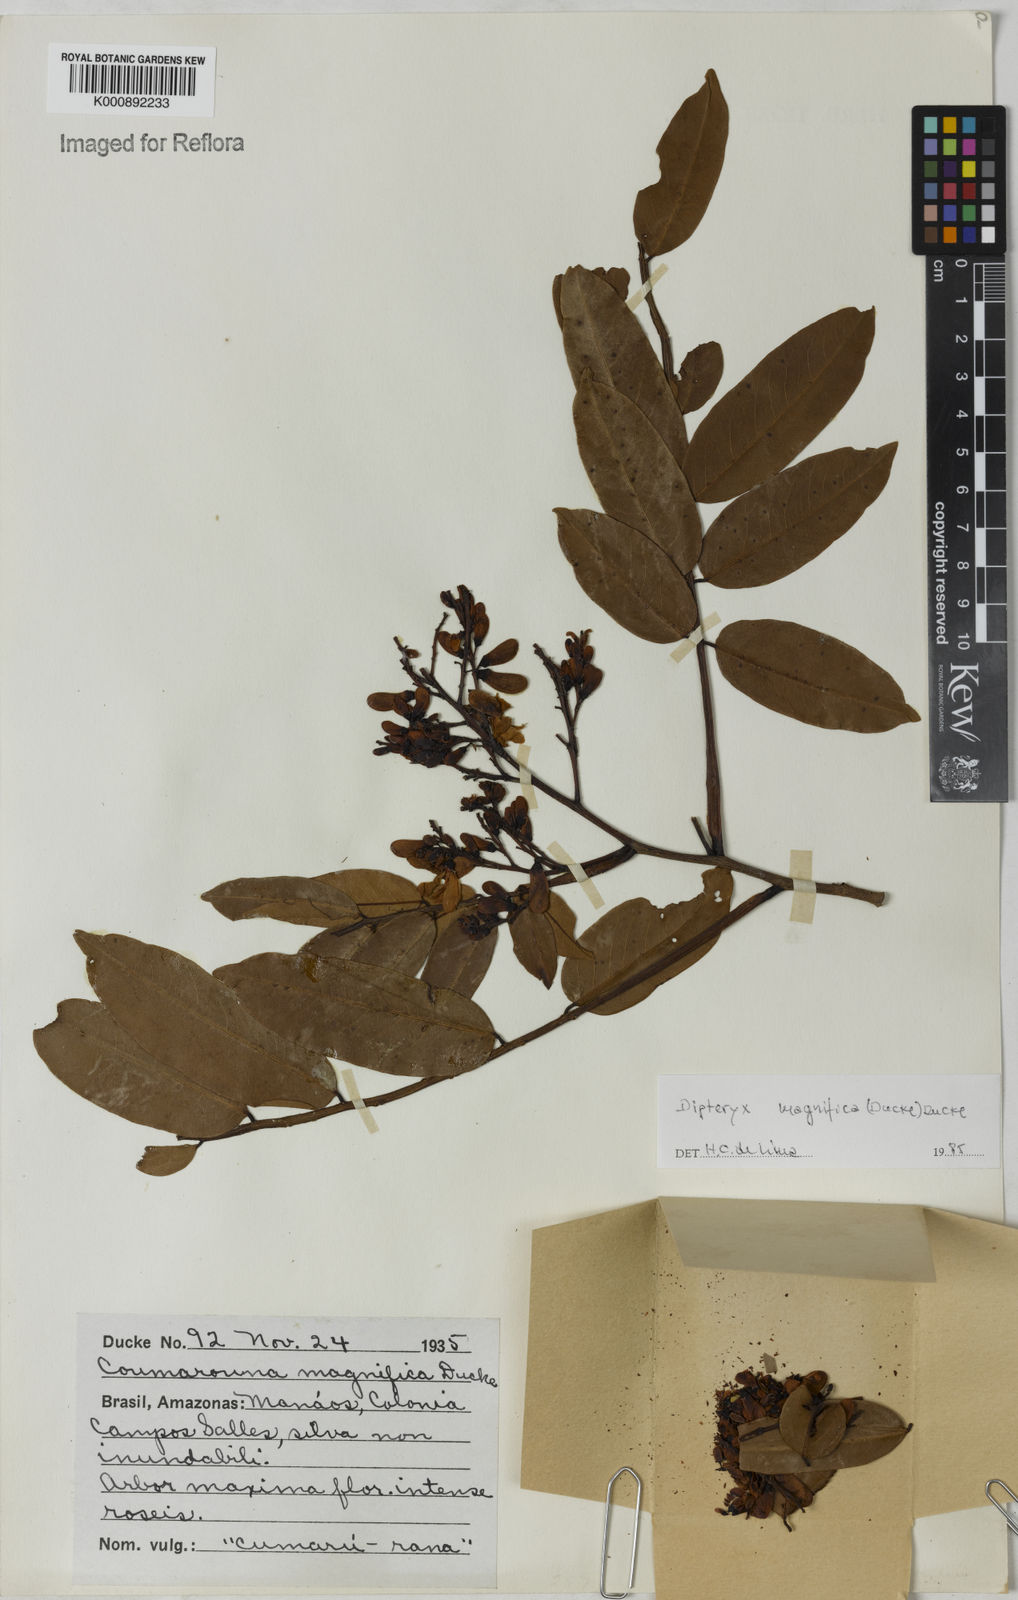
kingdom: Plantae
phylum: Tracheophyta
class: Magnoliopsida
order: Fabales
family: Fabaceae
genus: Dipteryx
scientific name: Dipteryx magnifica
